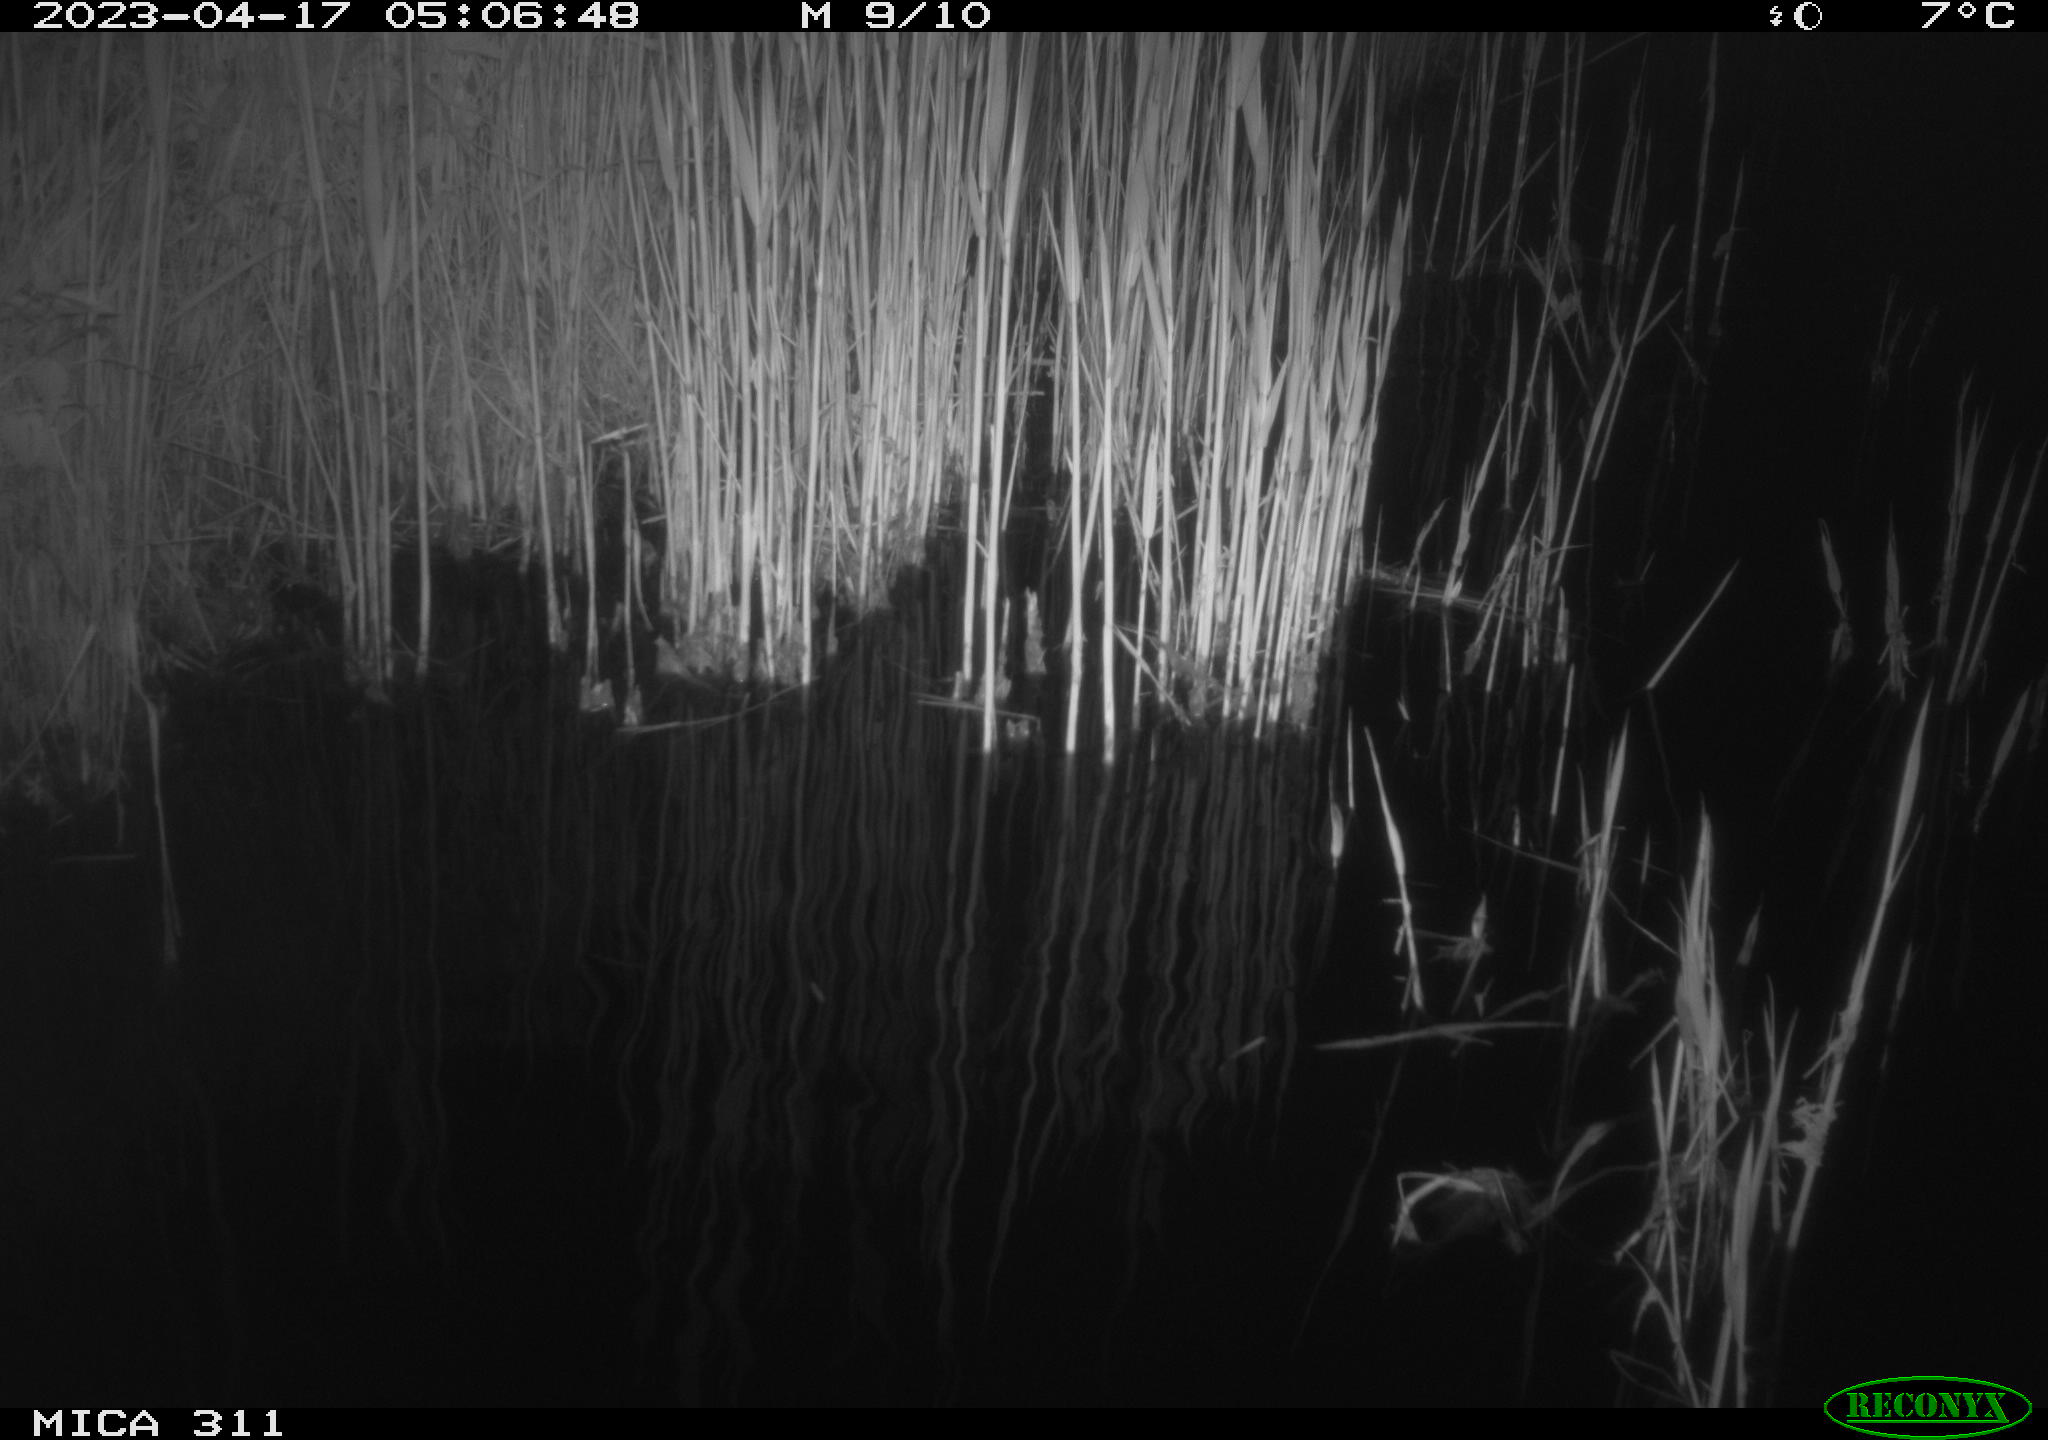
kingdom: Animalia
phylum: Chordata
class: Aves
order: Anseriformes
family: Anatidae
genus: Anas
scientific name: Anas
